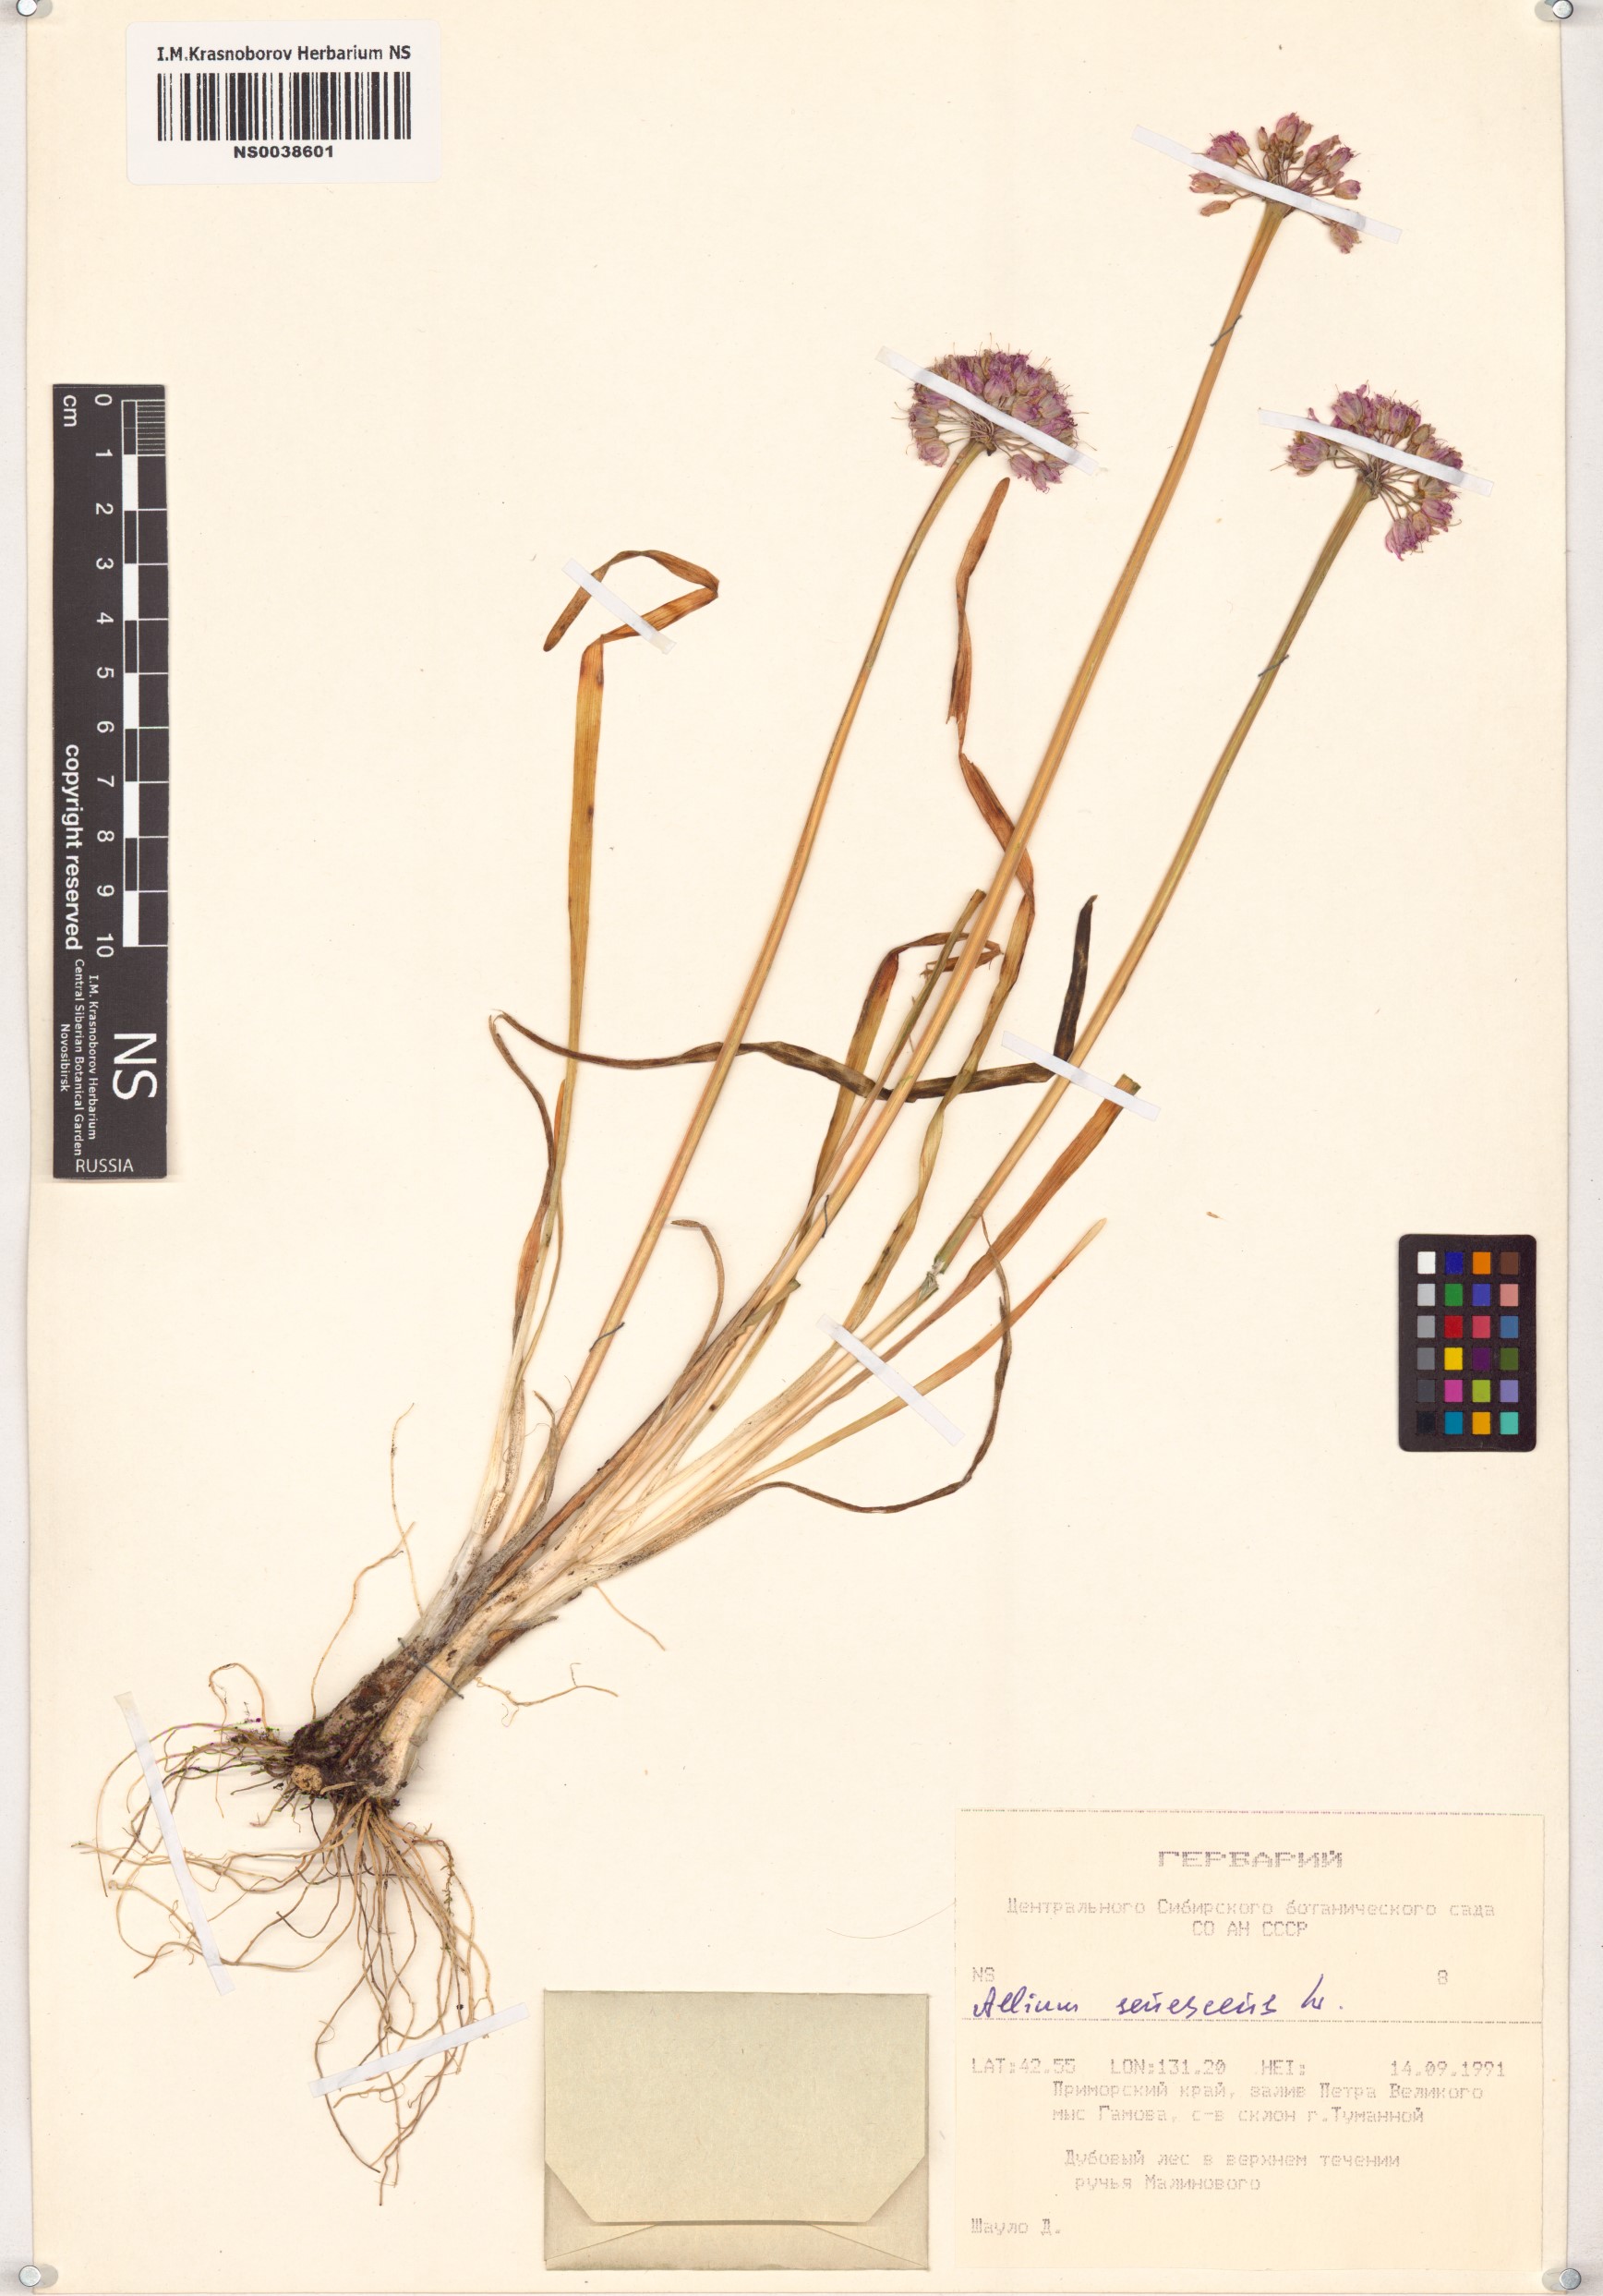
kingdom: Plantae
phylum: Tracheophyta
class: Liliopsida
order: Asparagales
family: Amaryllidaceae
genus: Allium
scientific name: Allium senescens
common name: German garlic
